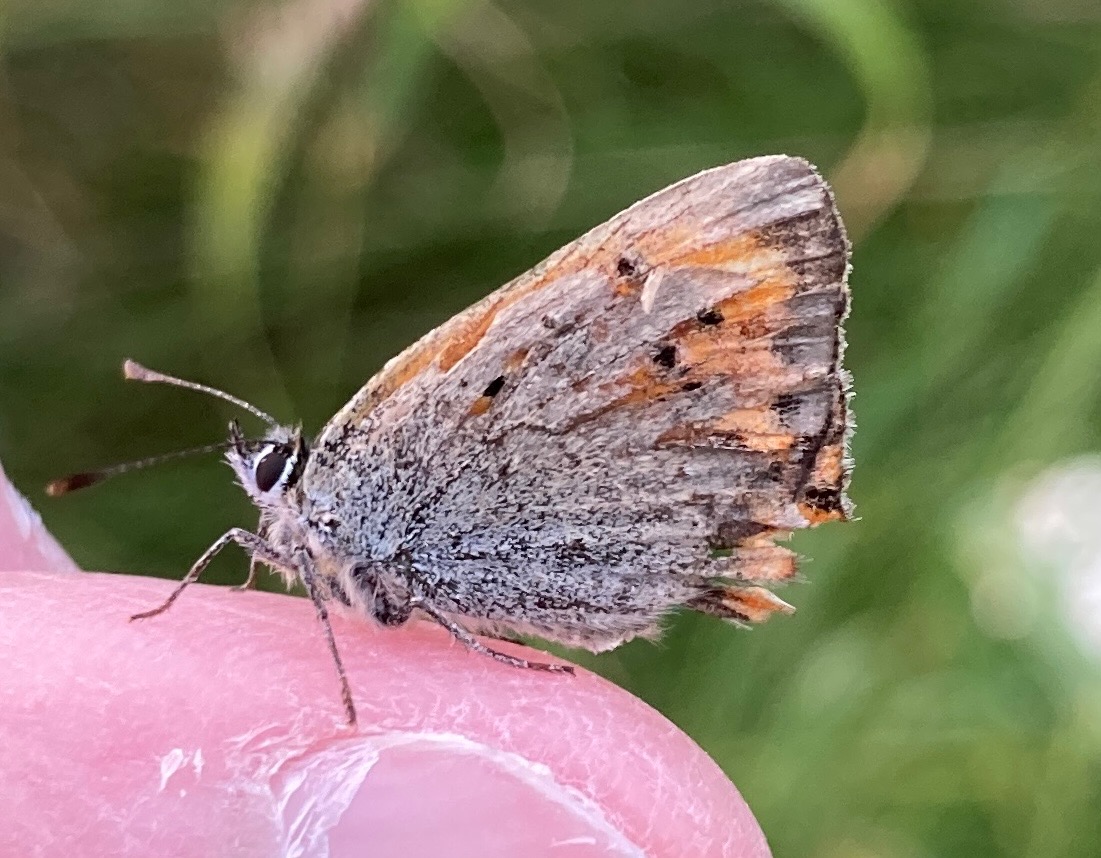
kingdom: Animalia
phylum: Arthropoda
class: Insecta
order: Lepidoptera
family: Lycaenidae
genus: Lycaena
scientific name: Lycaena phlaeas
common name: Lille ildfugl
